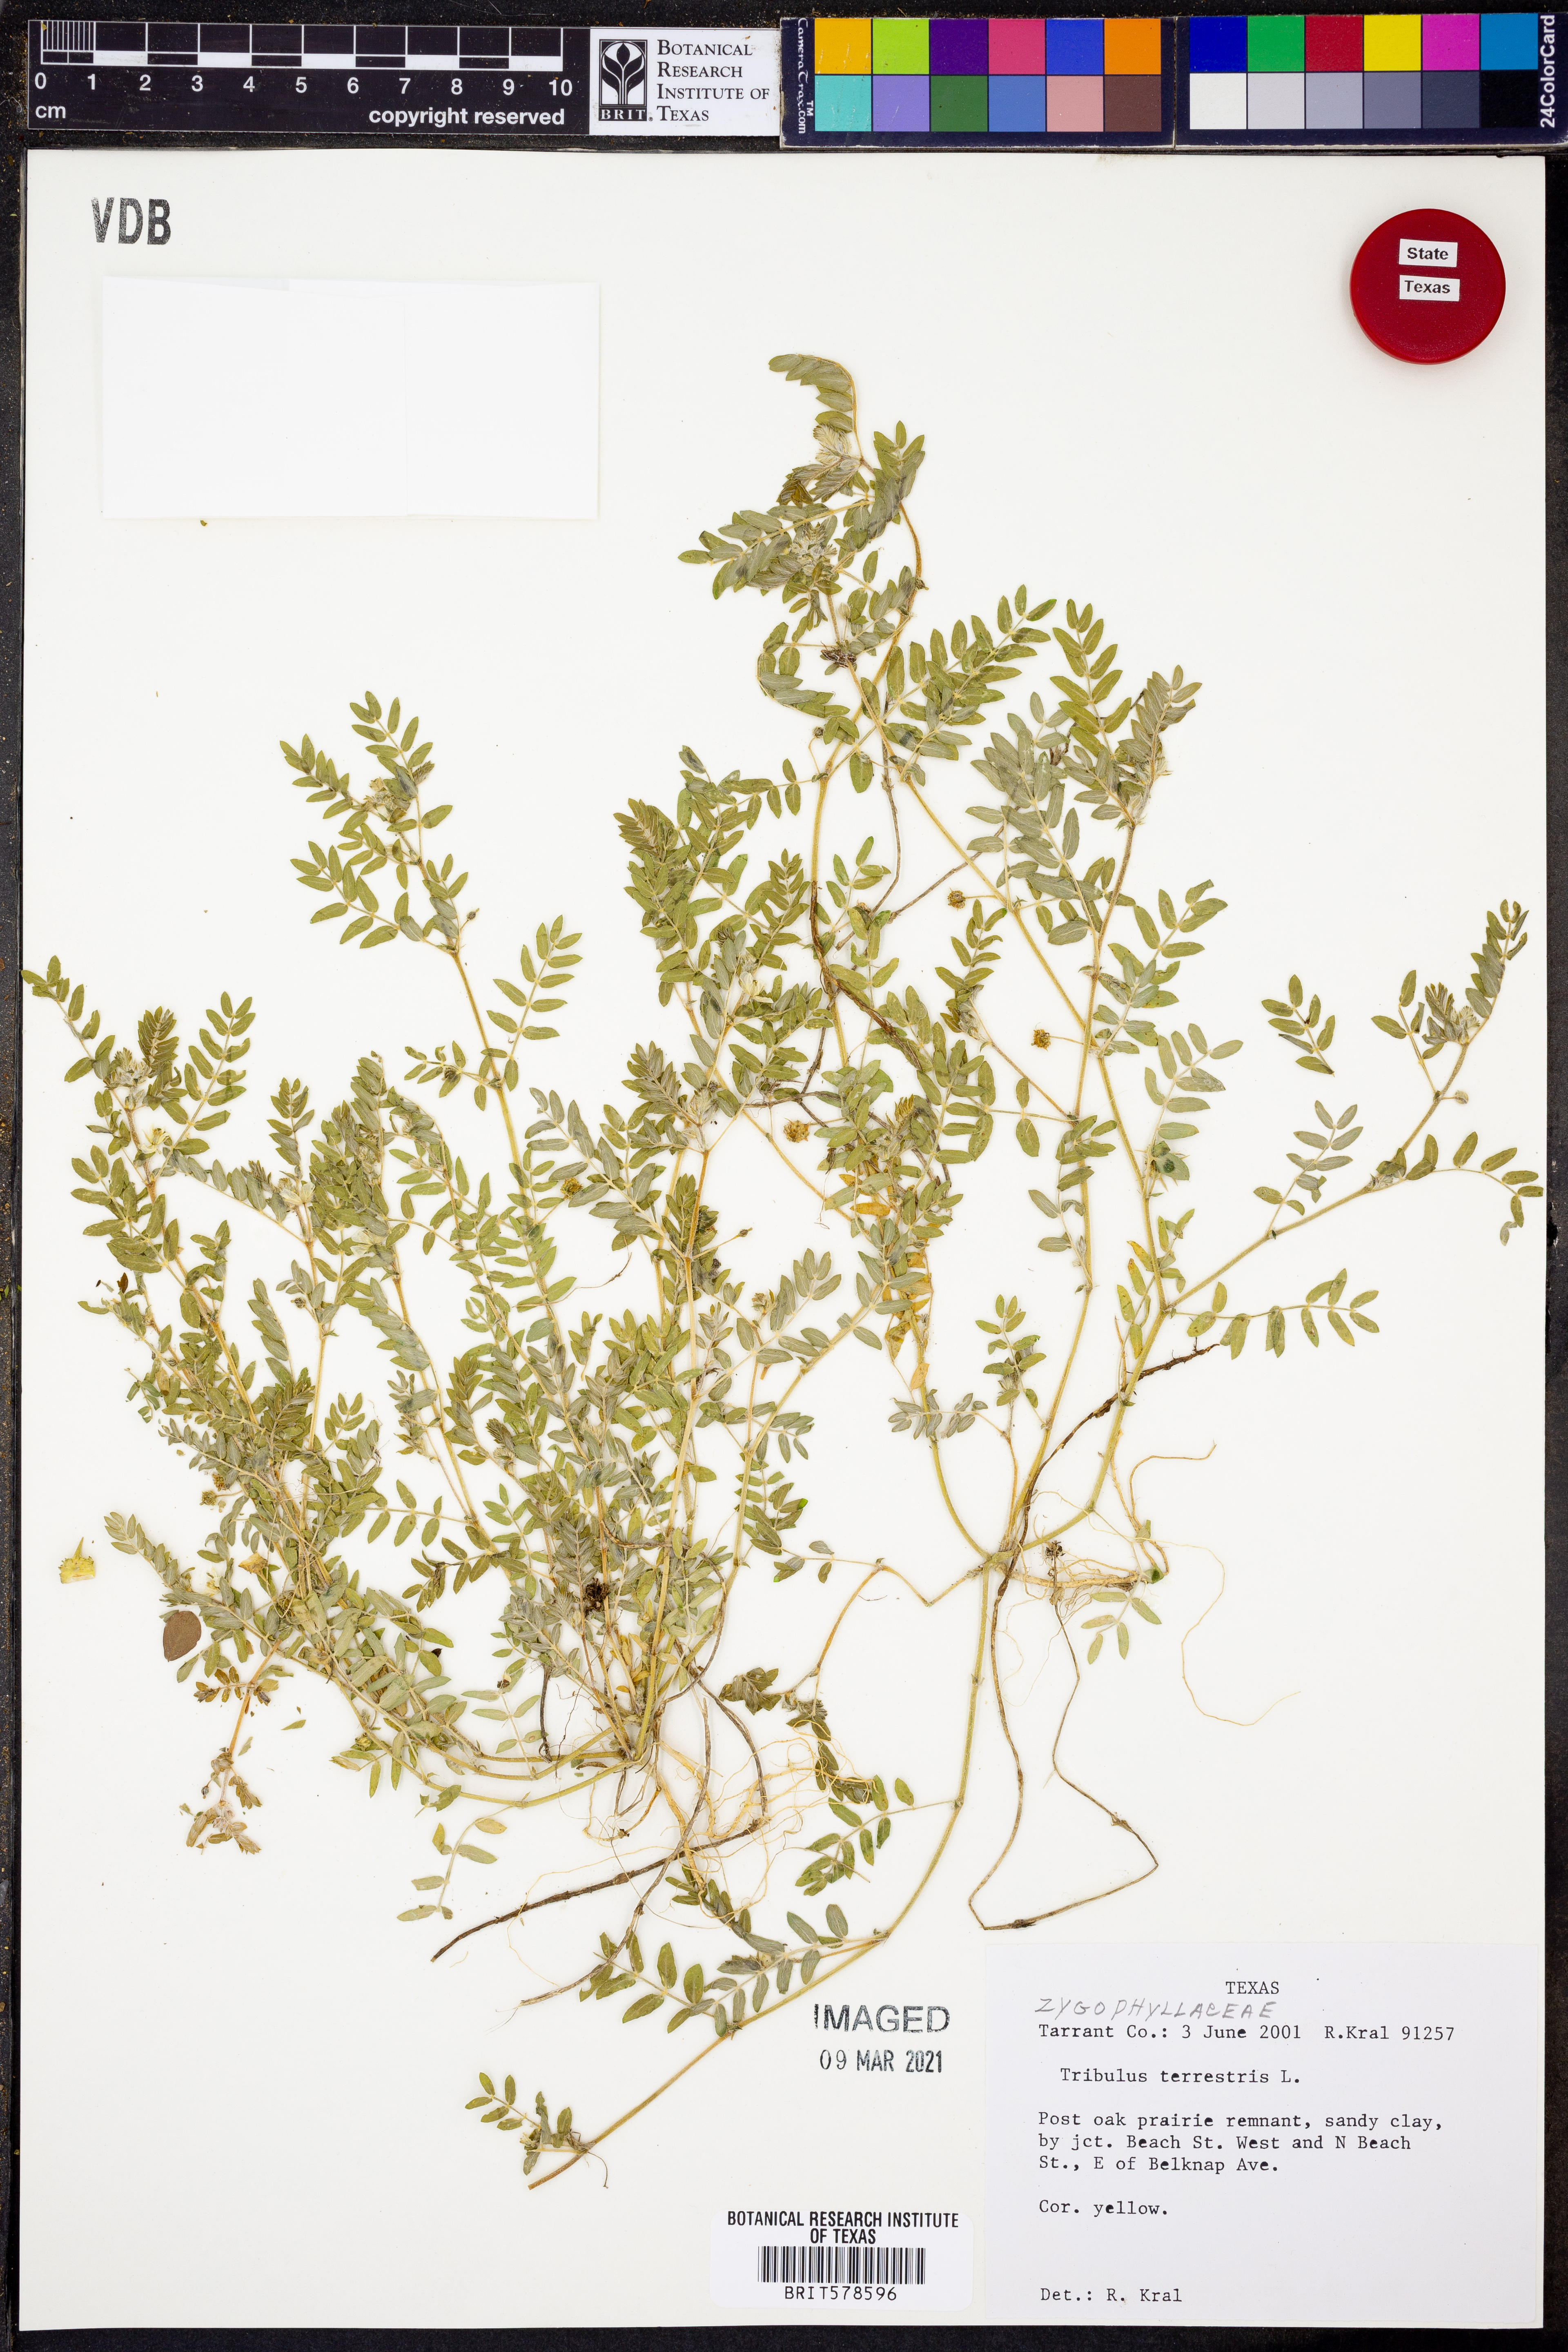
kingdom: Plantae
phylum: Tracheophyta
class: Magnoliopsida
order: Zygophyllales
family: Zygophyllaceae
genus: Tribulus
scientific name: Tribulus terrestris
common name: Puncturevine
